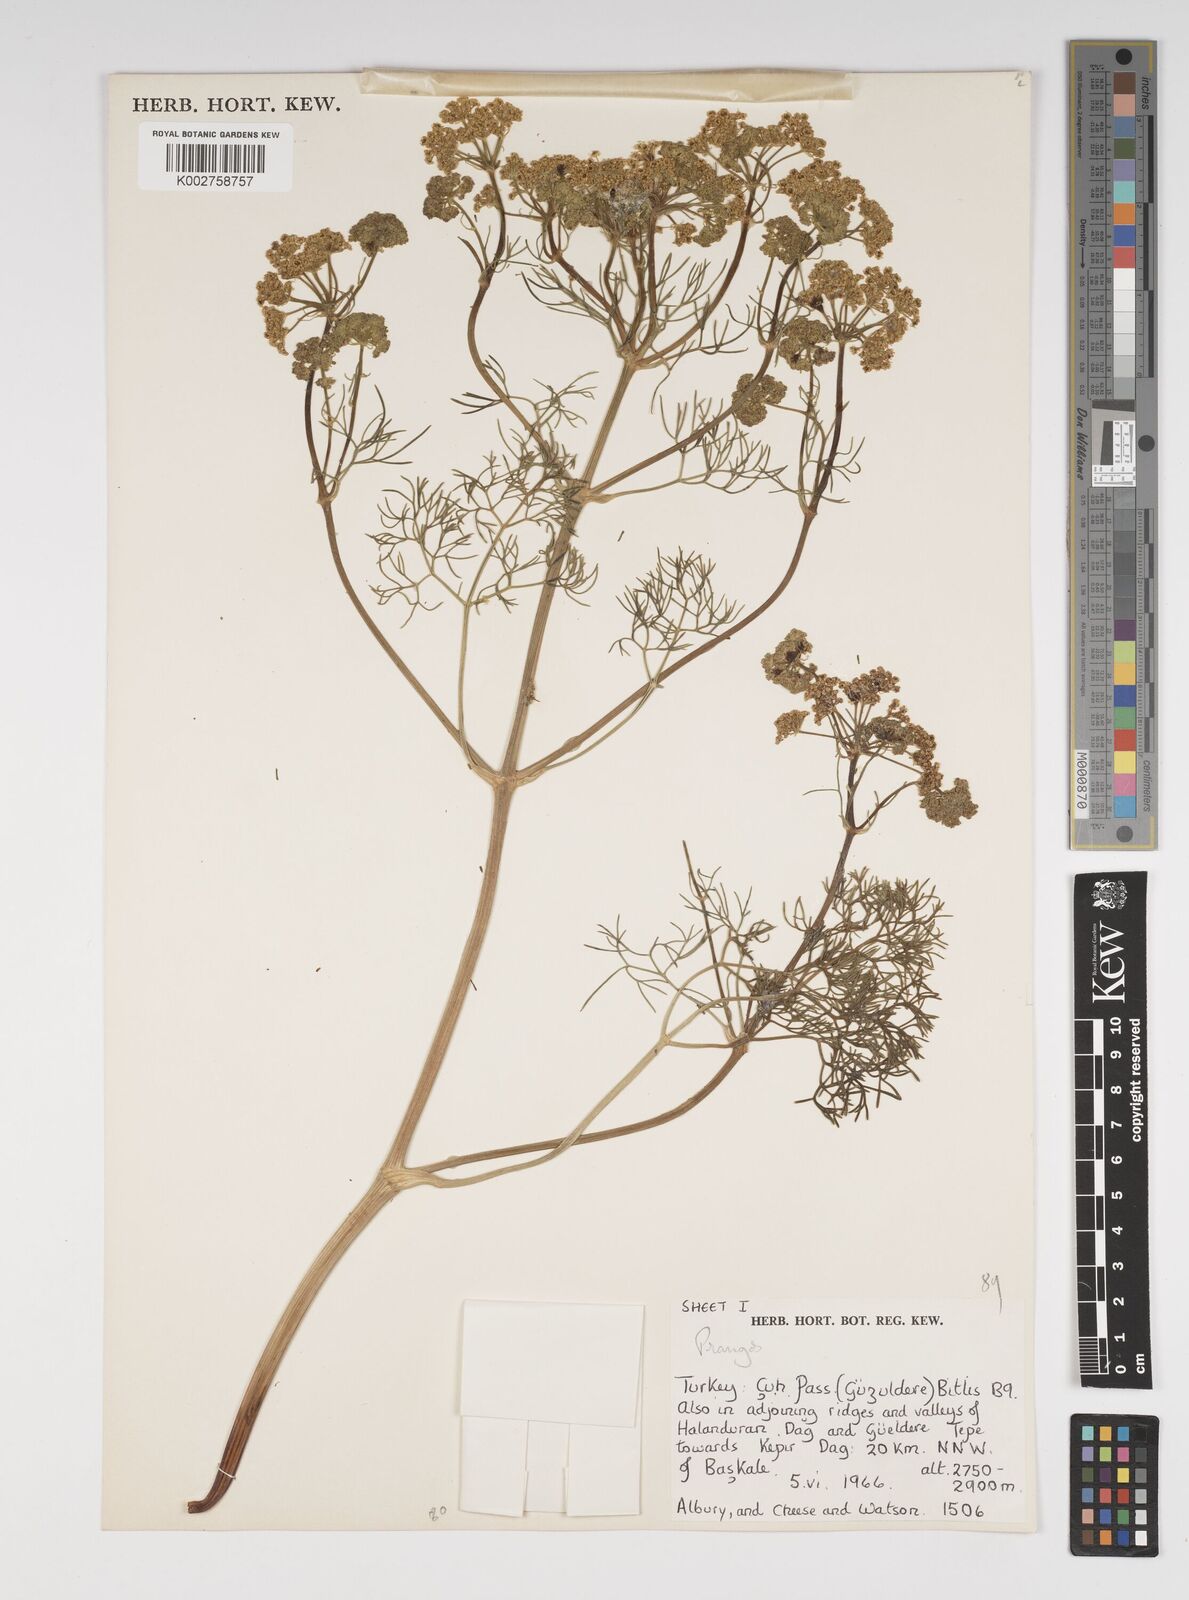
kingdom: Plantae
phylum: Tracheophyta
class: Magnoliopsida
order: Apiales
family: Apiaceae
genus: Cachrys
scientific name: Cachrys
